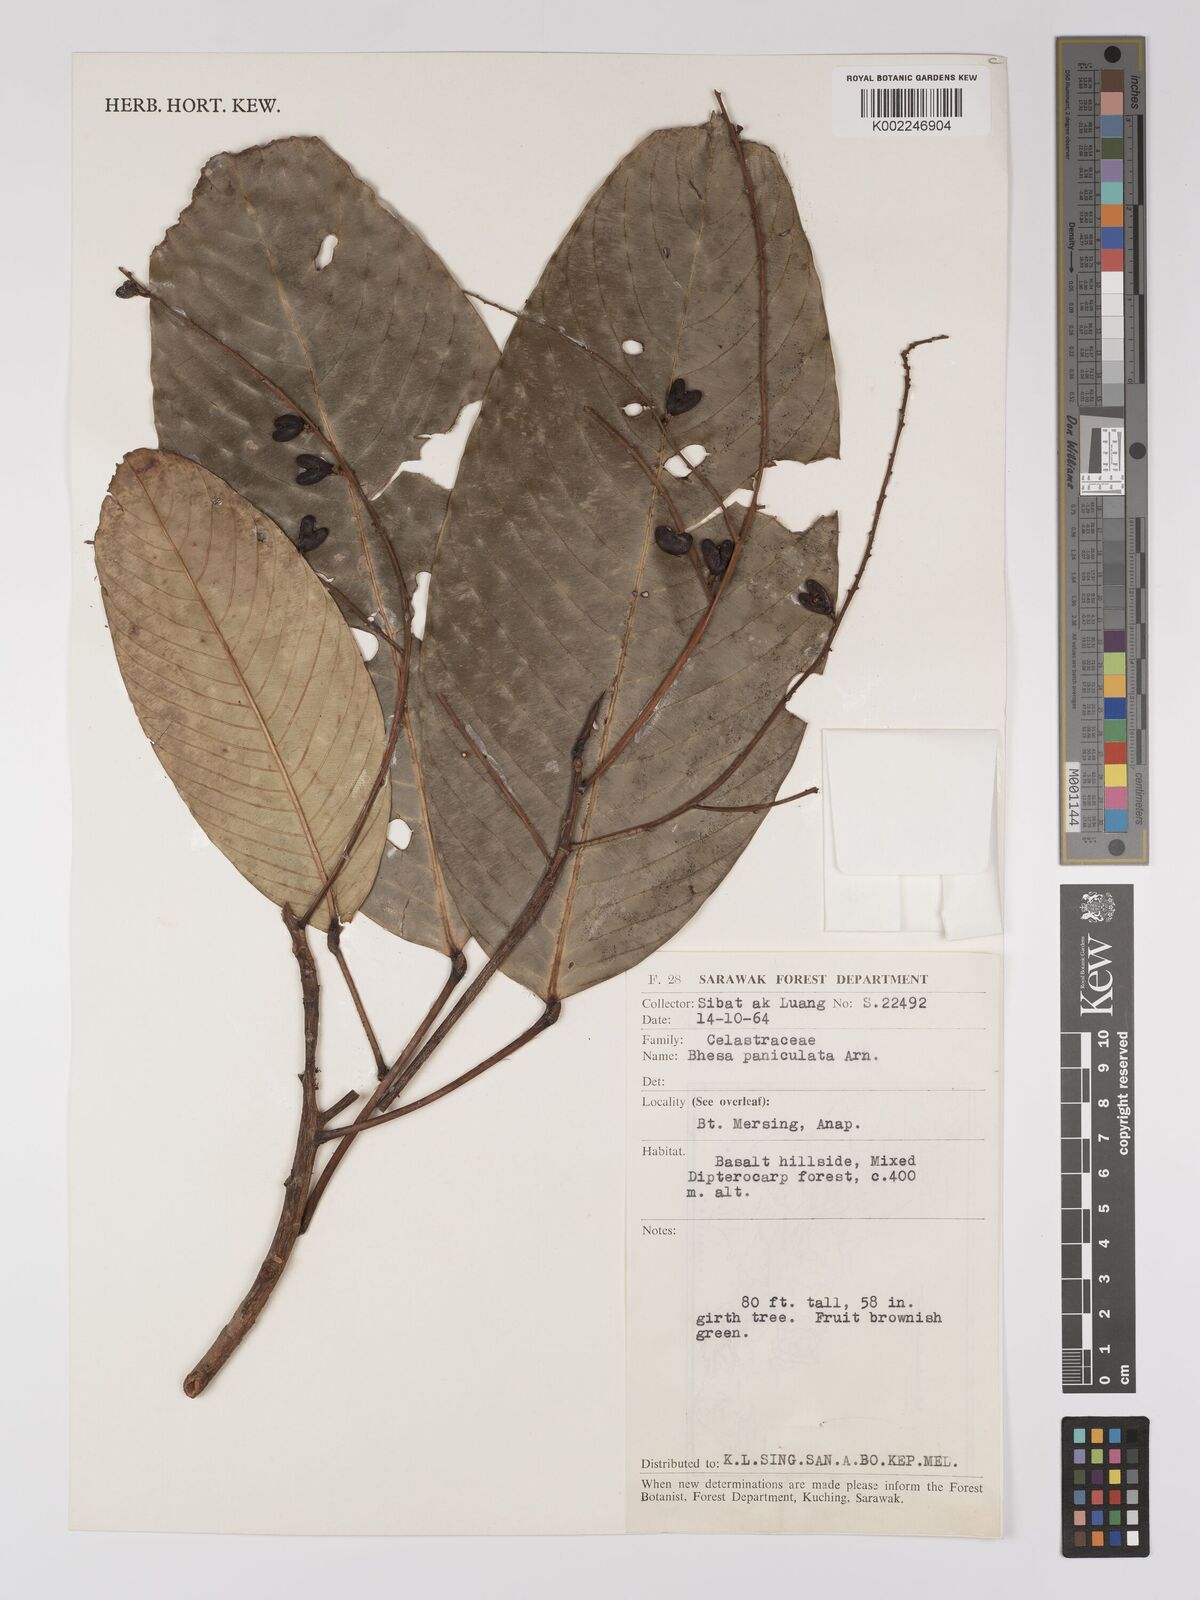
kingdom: Plantae
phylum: Tracheophyta
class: Magnoliopsida
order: Malpighiales
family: Centroplacaceae
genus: Bhesa
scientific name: Bhesa paniculata
